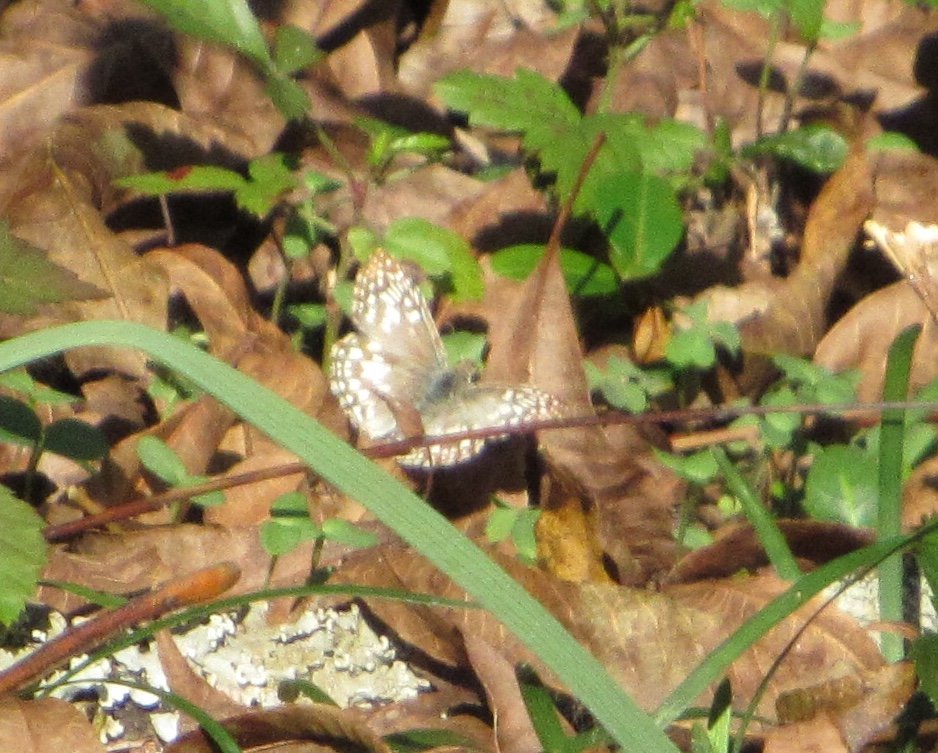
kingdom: Animalia
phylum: Arthropoda
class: Insecta
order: Lepidoptera
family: Hesperiidae
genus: Pyrgus
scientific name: Pyrgus oileus
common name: Tropical Checkered-Skipper
